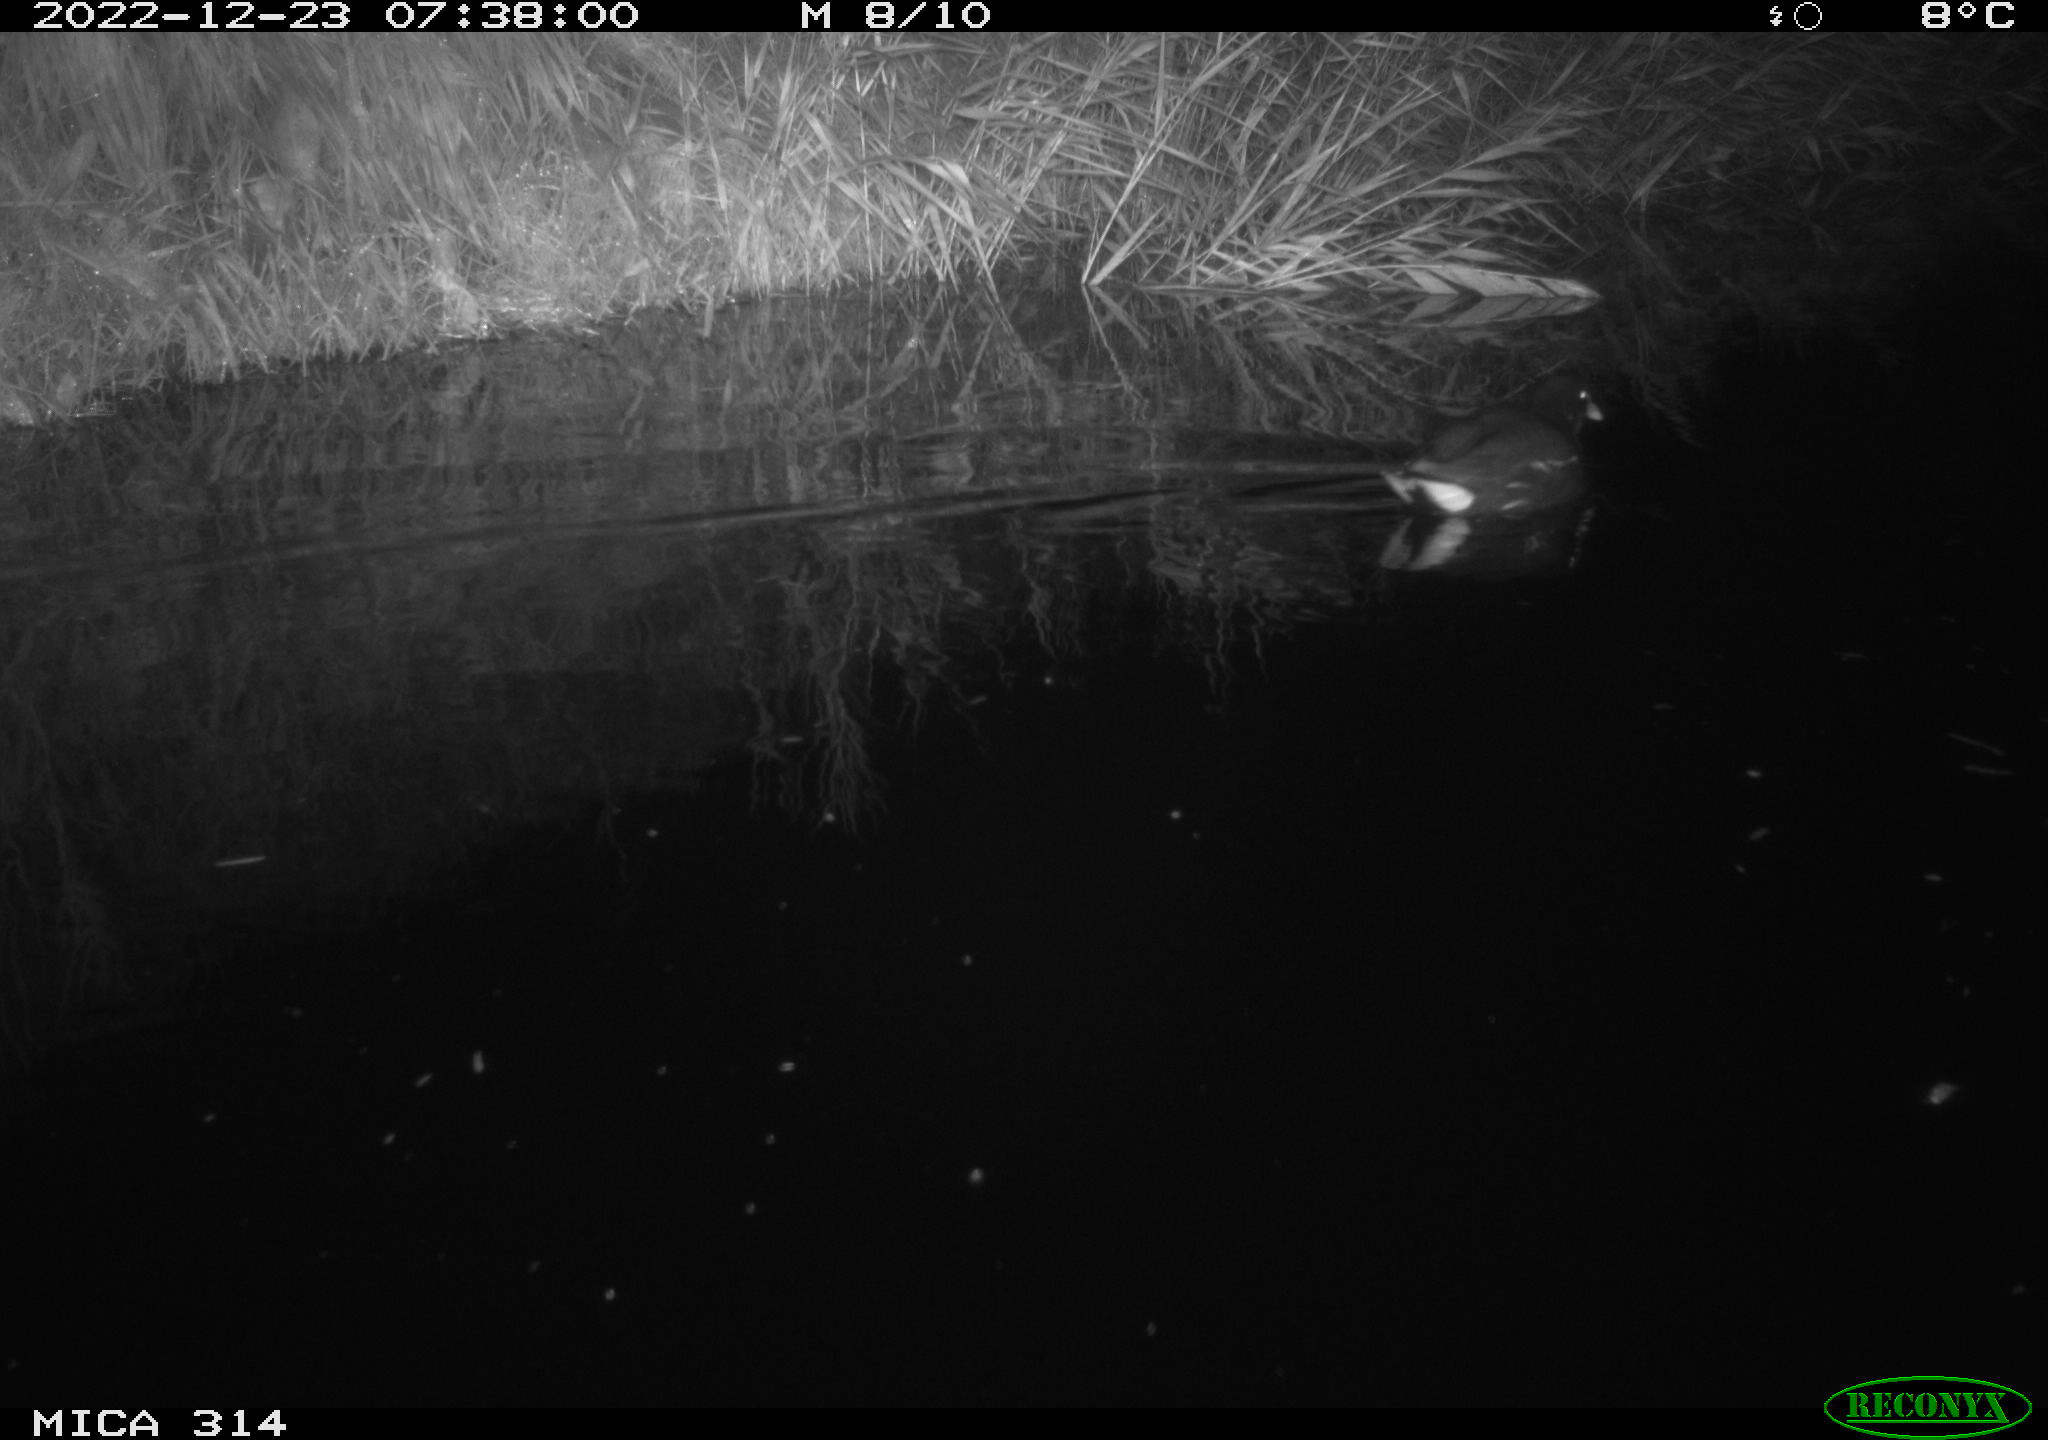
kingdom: Animalia
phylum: Chordata
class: Aves
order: Gruiformes
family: Rallidae
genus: Gallinula
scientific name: Gallinula chloropus
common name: Common moorhen
